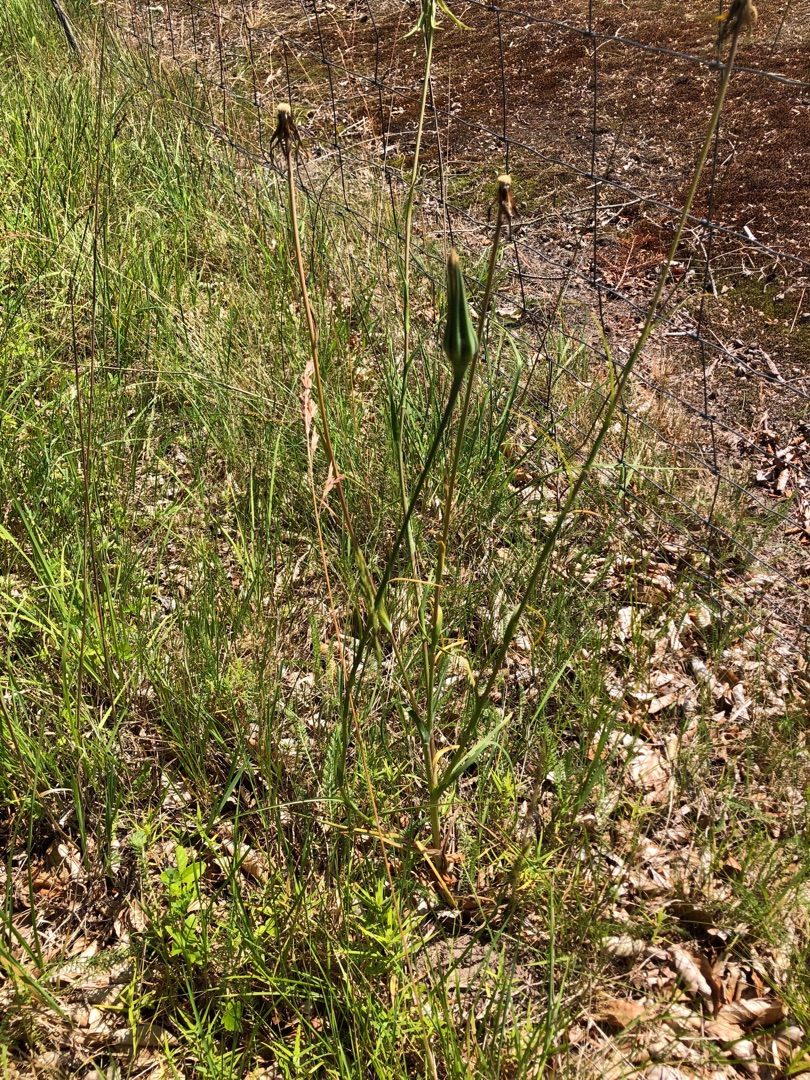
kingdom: Plantae
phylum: Tracheophyta
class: Magnoliopsida
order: Asterales
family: Asteraceae
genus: Tragopogon
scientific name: Tragopogon pratensis
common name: Gedeskæg
